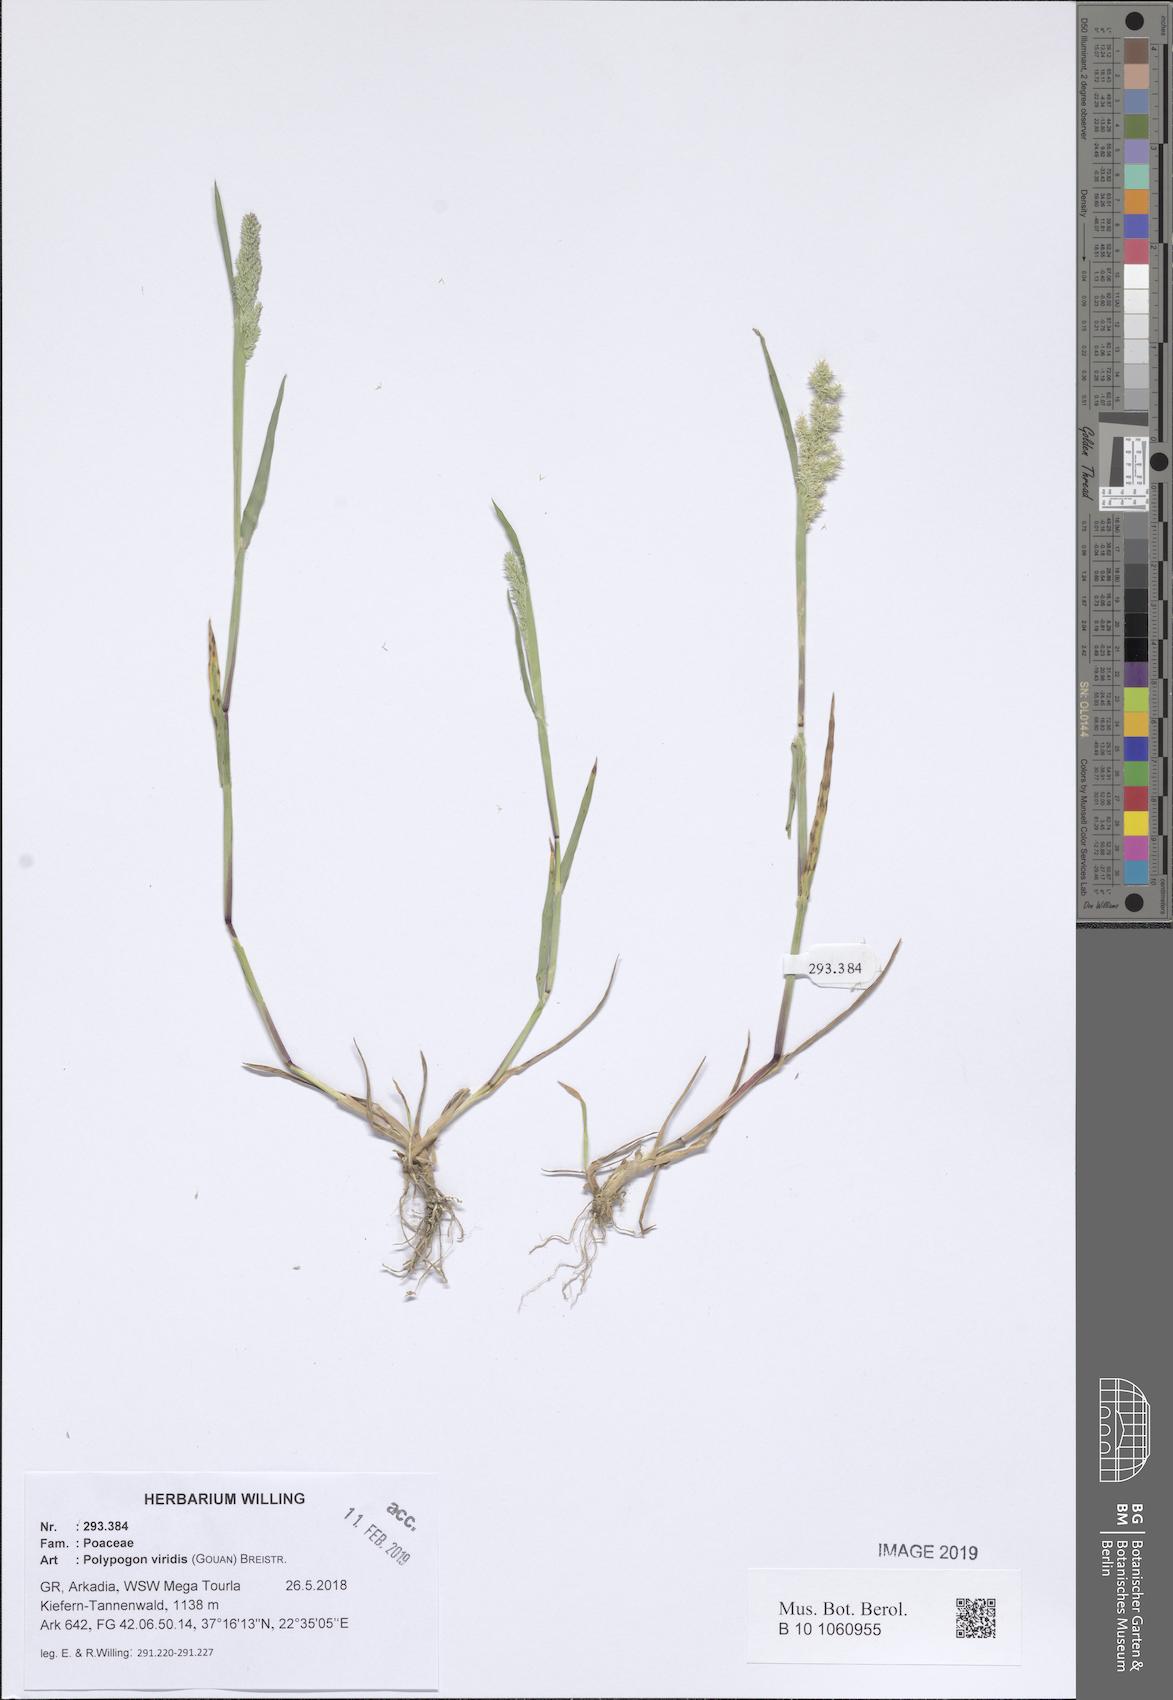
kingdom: Plantae
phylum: Tracheophyta
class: Liliopsida
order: Poales
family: Poaceae
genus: Polypogon
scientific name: Polypogon viridis
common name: Water bent
